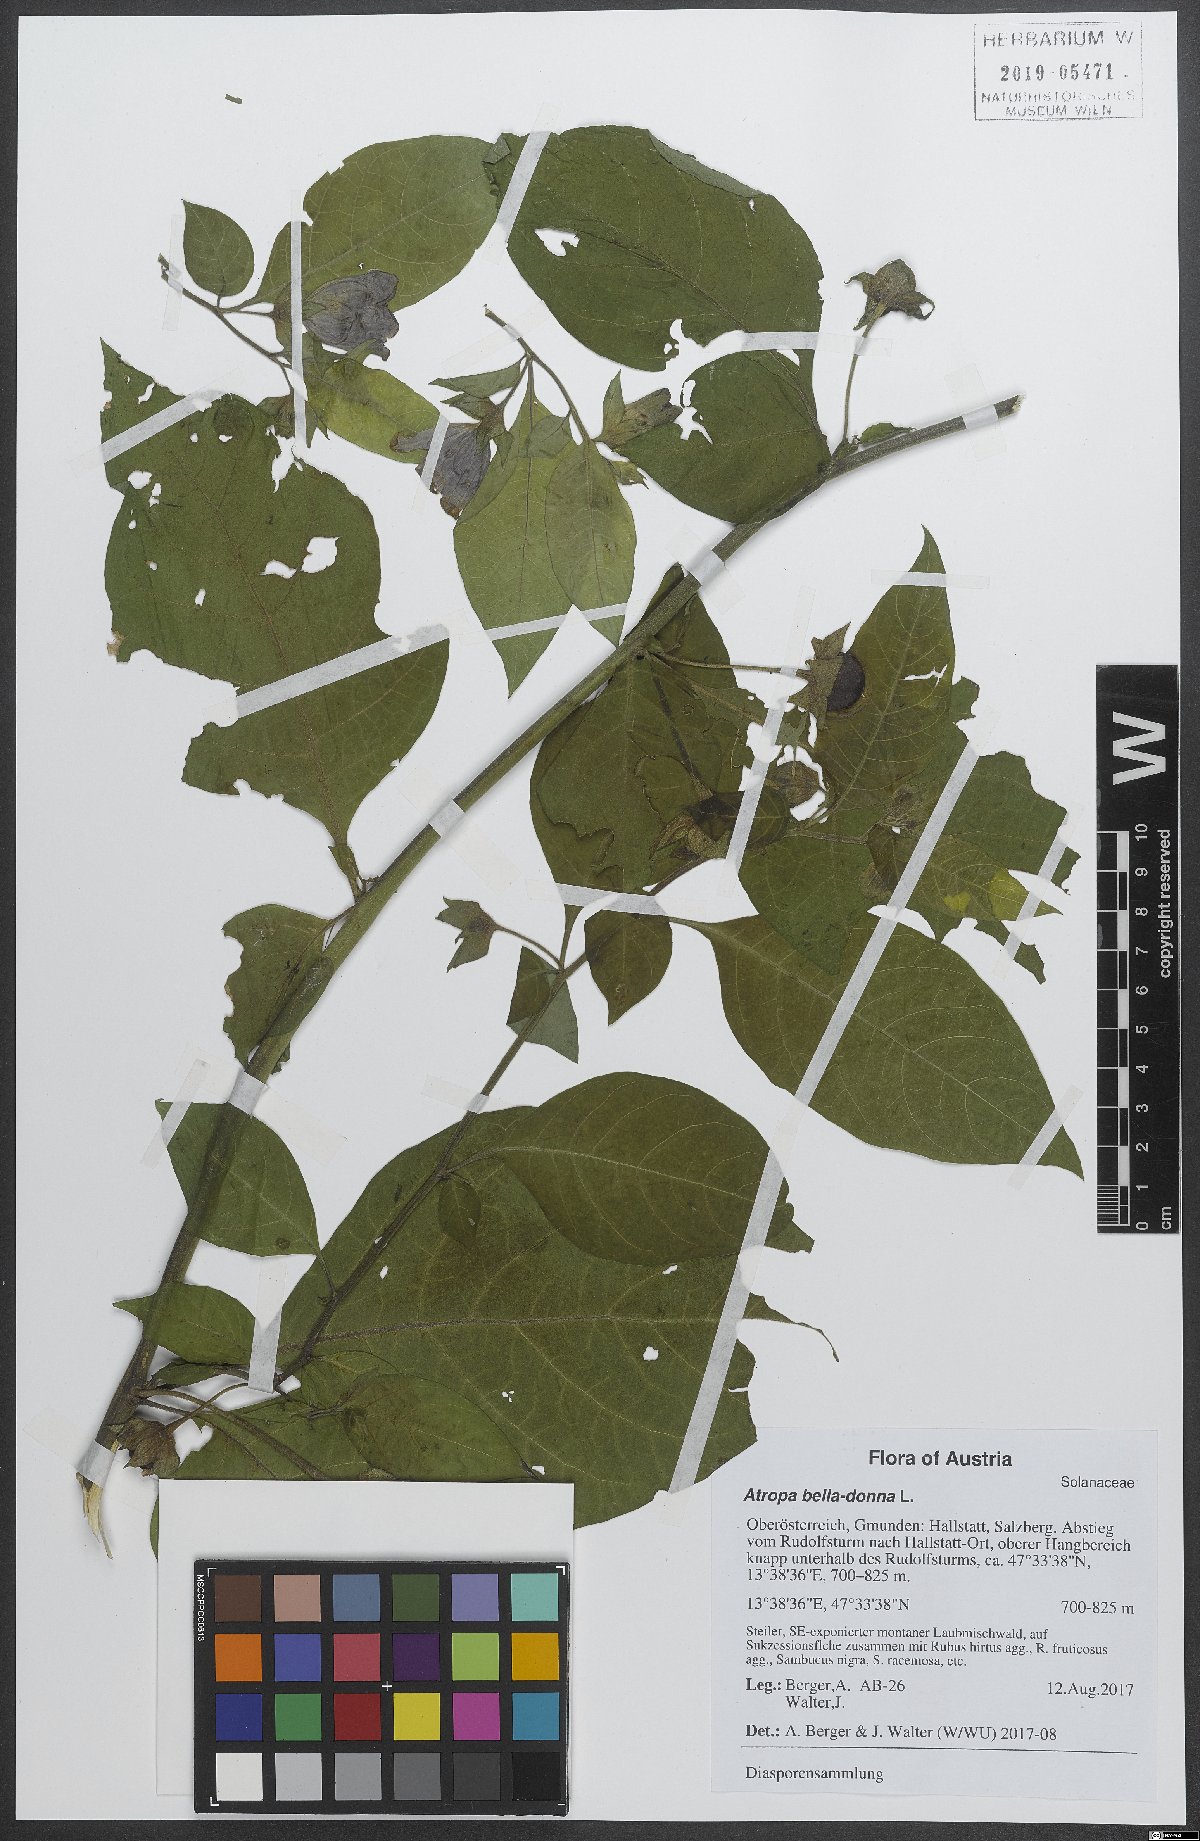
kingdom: Plantae
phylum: Tracheophyta
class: Magnoliopsida
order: Solanales
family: Solanaceae
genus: Atropa
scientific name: Atropa belladonna
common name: Deadly nightshade
